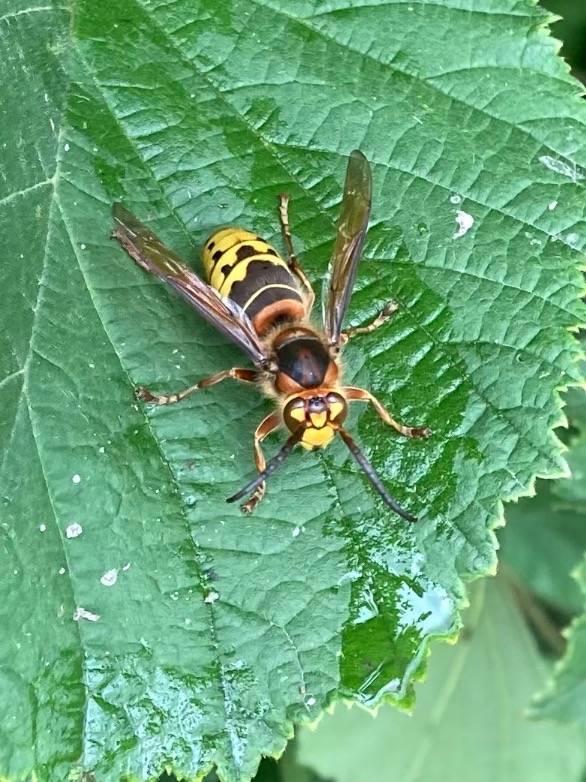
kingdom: Animalia
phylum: Arthropoda
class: Insecta
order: Hymenoptera
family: Vespidae
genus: Vespa
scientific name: Vespa crabro
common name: Stor gedehams
